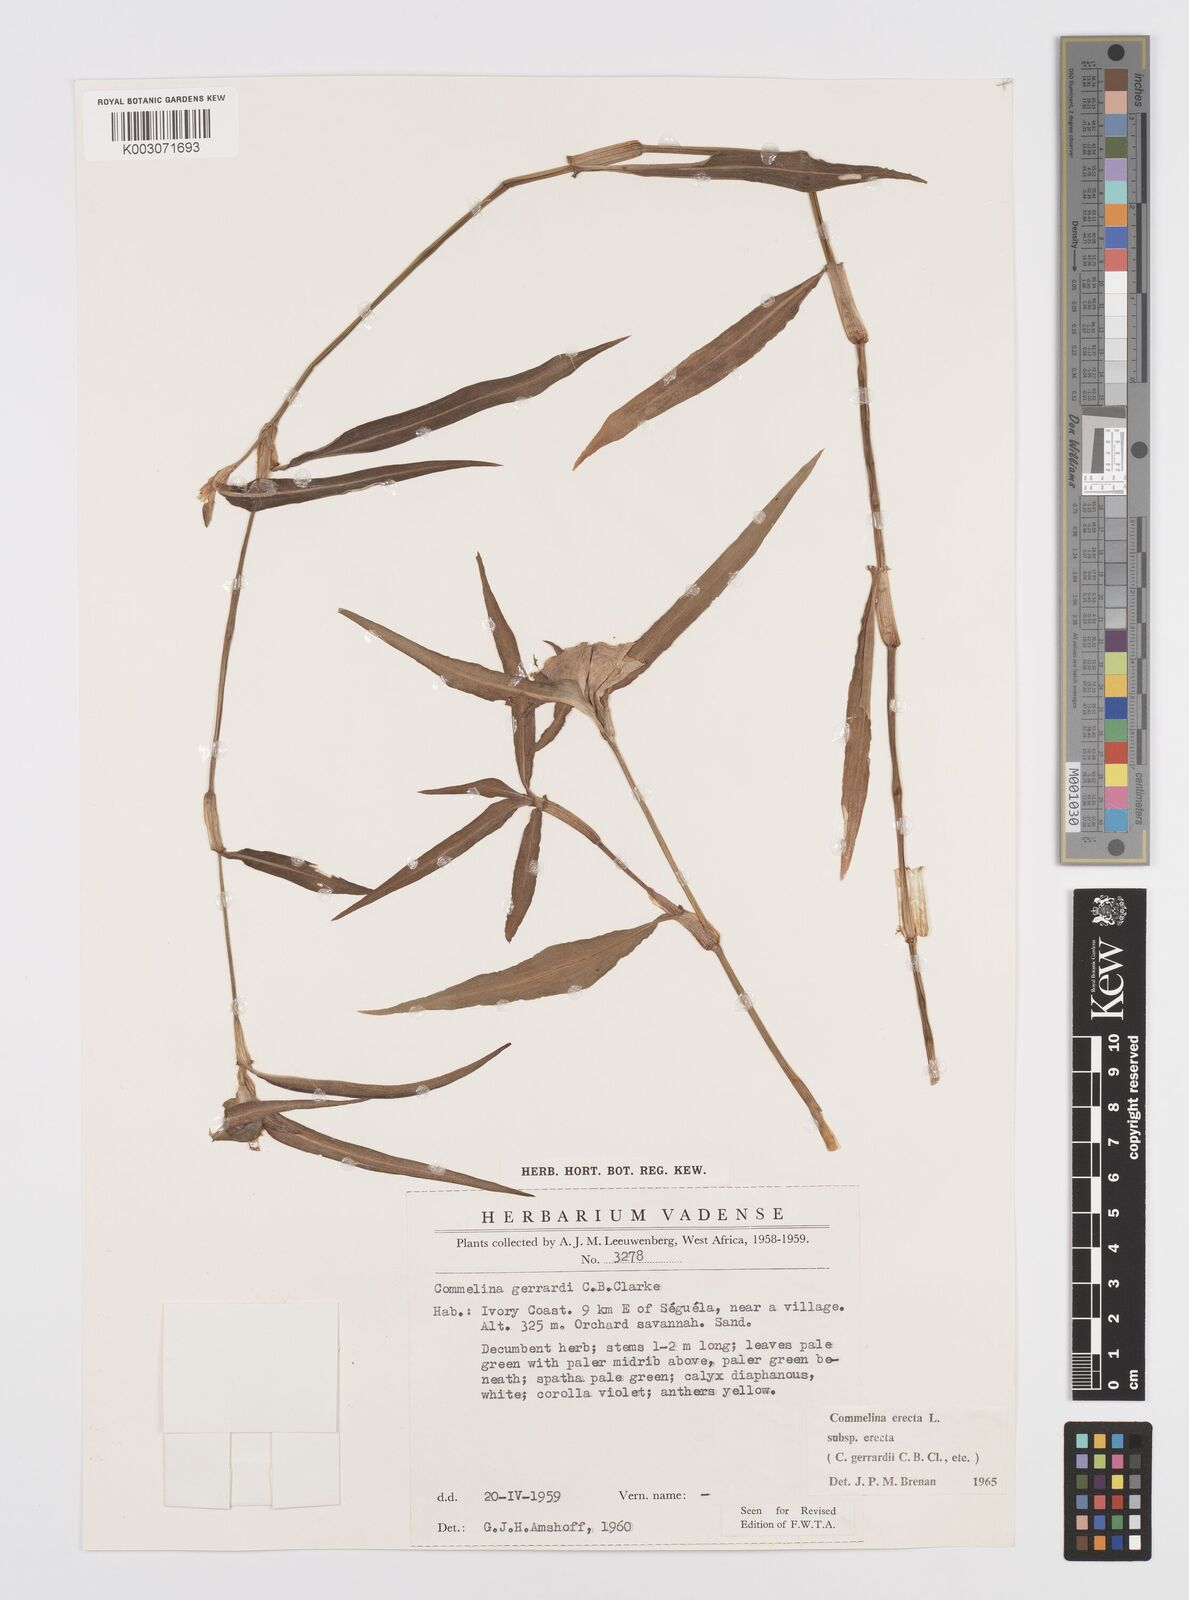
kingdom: Plantae
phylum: Tracheophyta
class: Liliopsida
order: Commelinales
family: Commelinaceae
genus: Commelina
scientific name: Commelina erecta
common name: Blousel blommetjie
